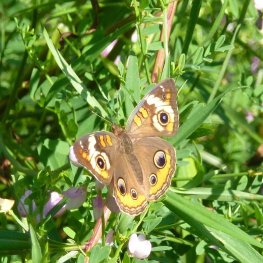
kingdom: Animalia
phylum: Arthropoda
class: Insecta
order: Lepidoptera
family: Nymphalidae
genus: Junonia
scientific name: Junonia coenia
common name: Common Buckeye
